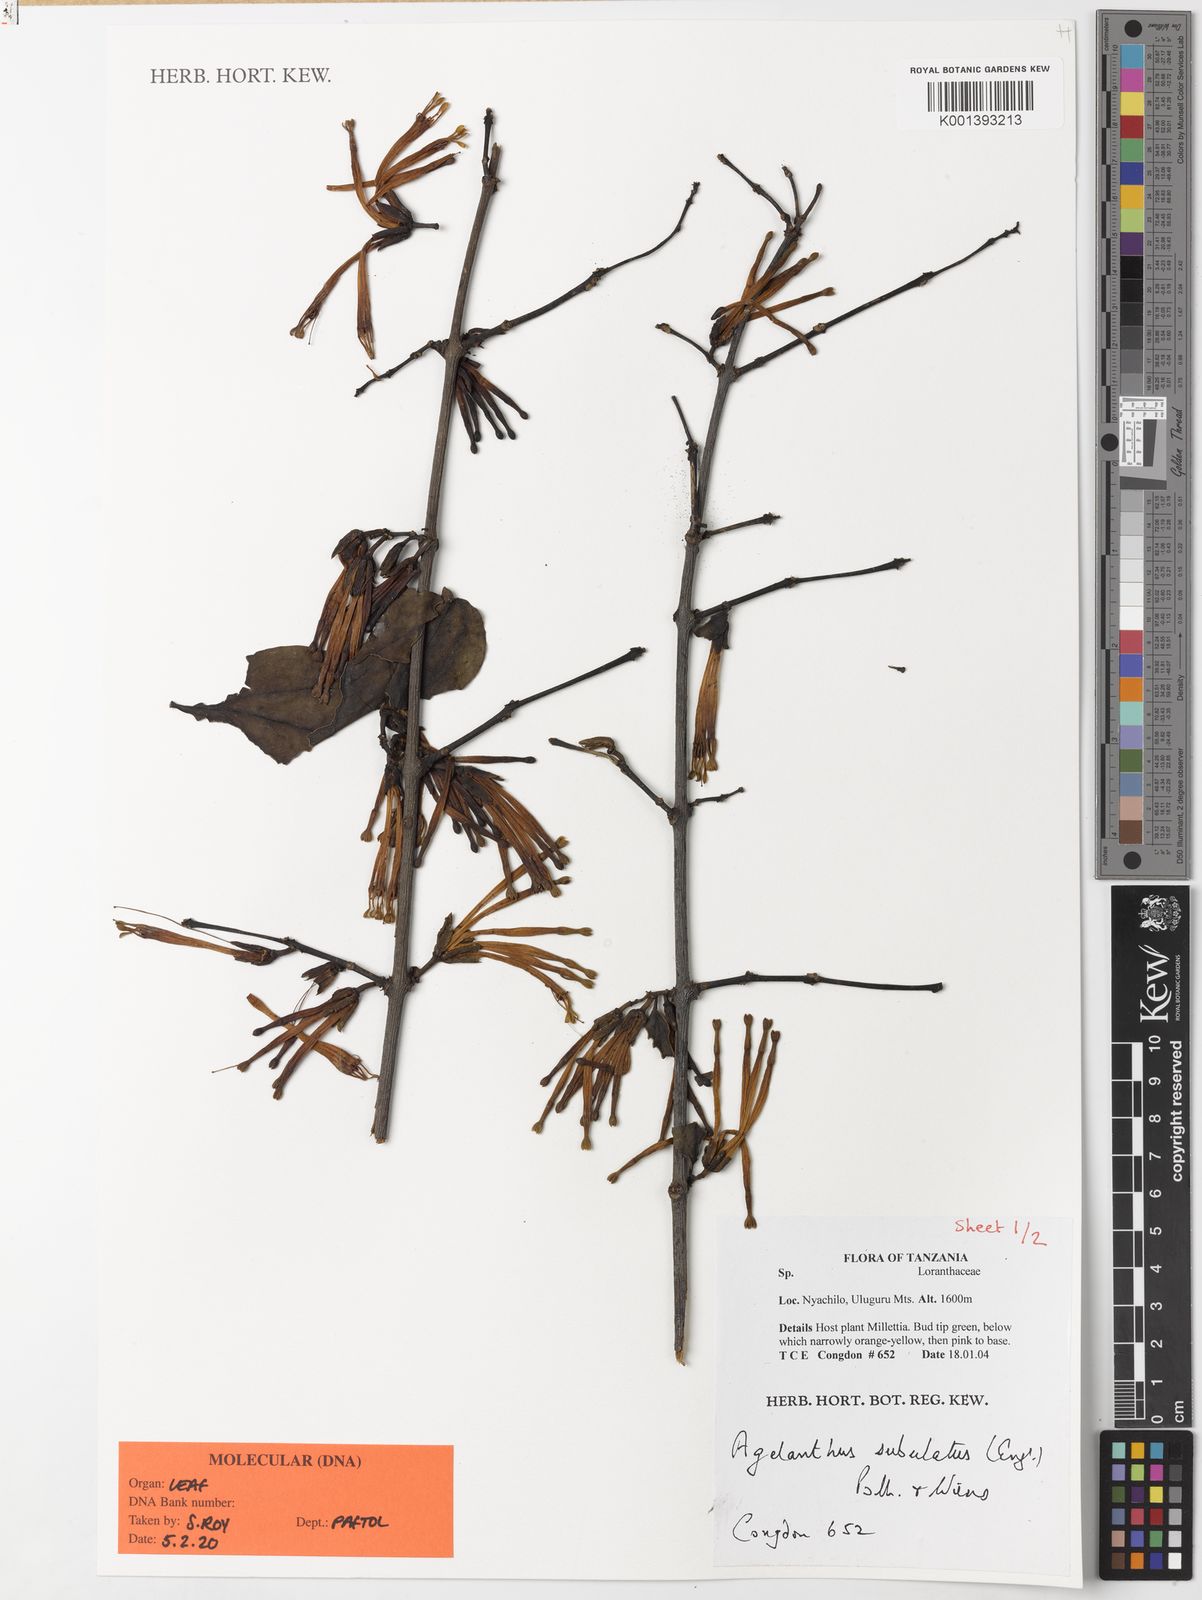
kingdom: Plantae
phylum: Tracheophyta
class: Magnoliopsida
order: Santalales
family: Loranthaceae
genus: Agelanthus
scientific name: Agelanthus subulatus
